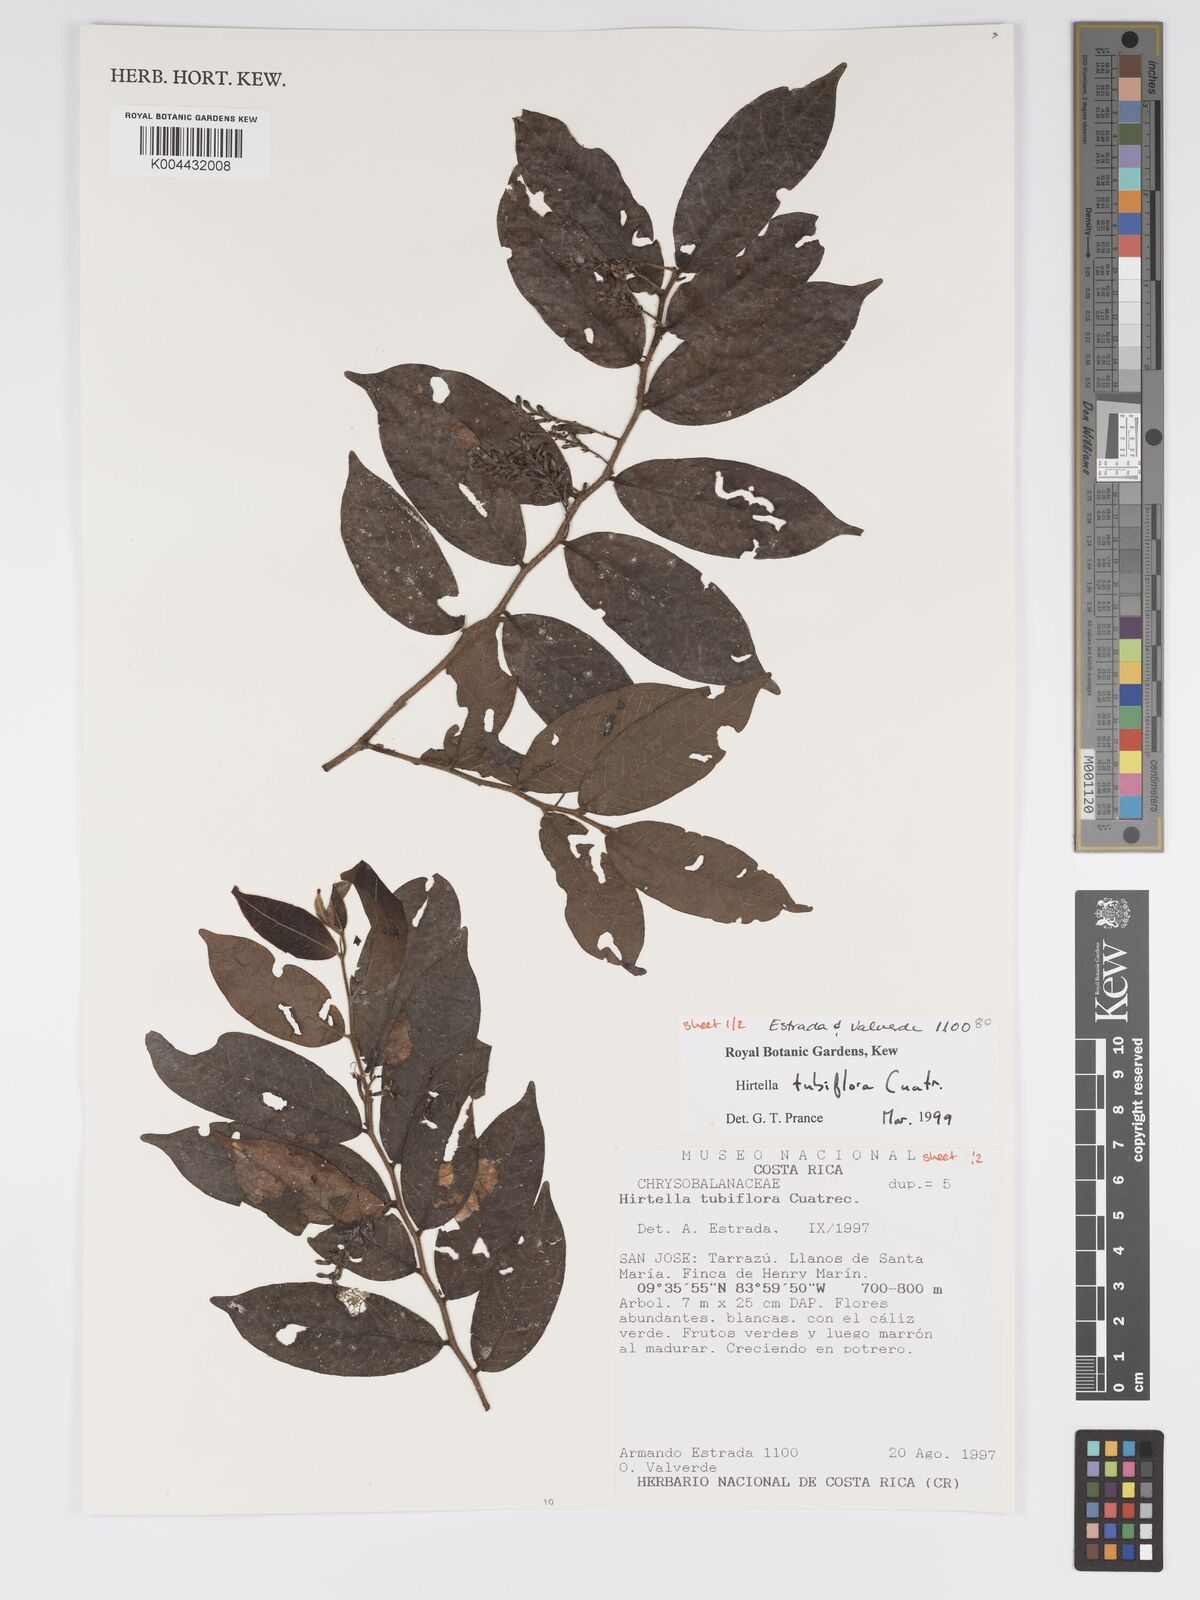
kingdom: Plantae
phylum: Tracheophyta
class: Magnoliopsida
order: Malpighiales
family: Chrysobalanaceae
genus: Hirtella
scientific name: Hirtella tubiflora
